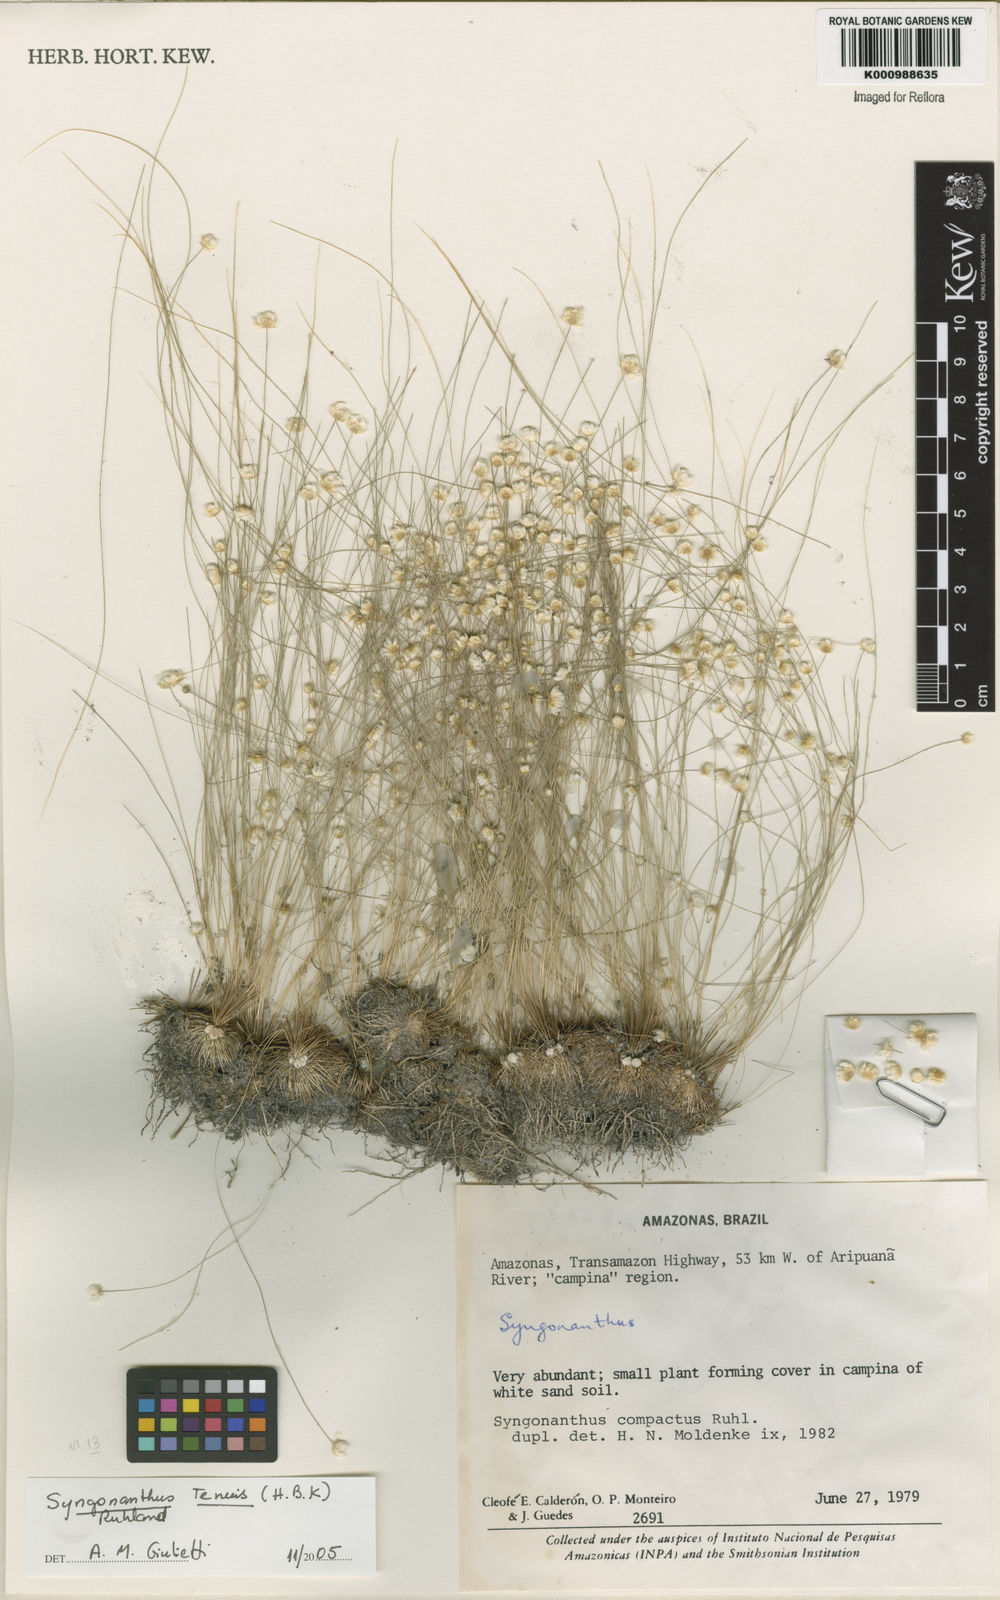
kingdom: Plantae
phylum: Tracheophyta
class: Liliopsida
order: Poales
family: Eriocaulaceae
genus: Syngonanthus
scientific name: Syngonanthus tenuis
